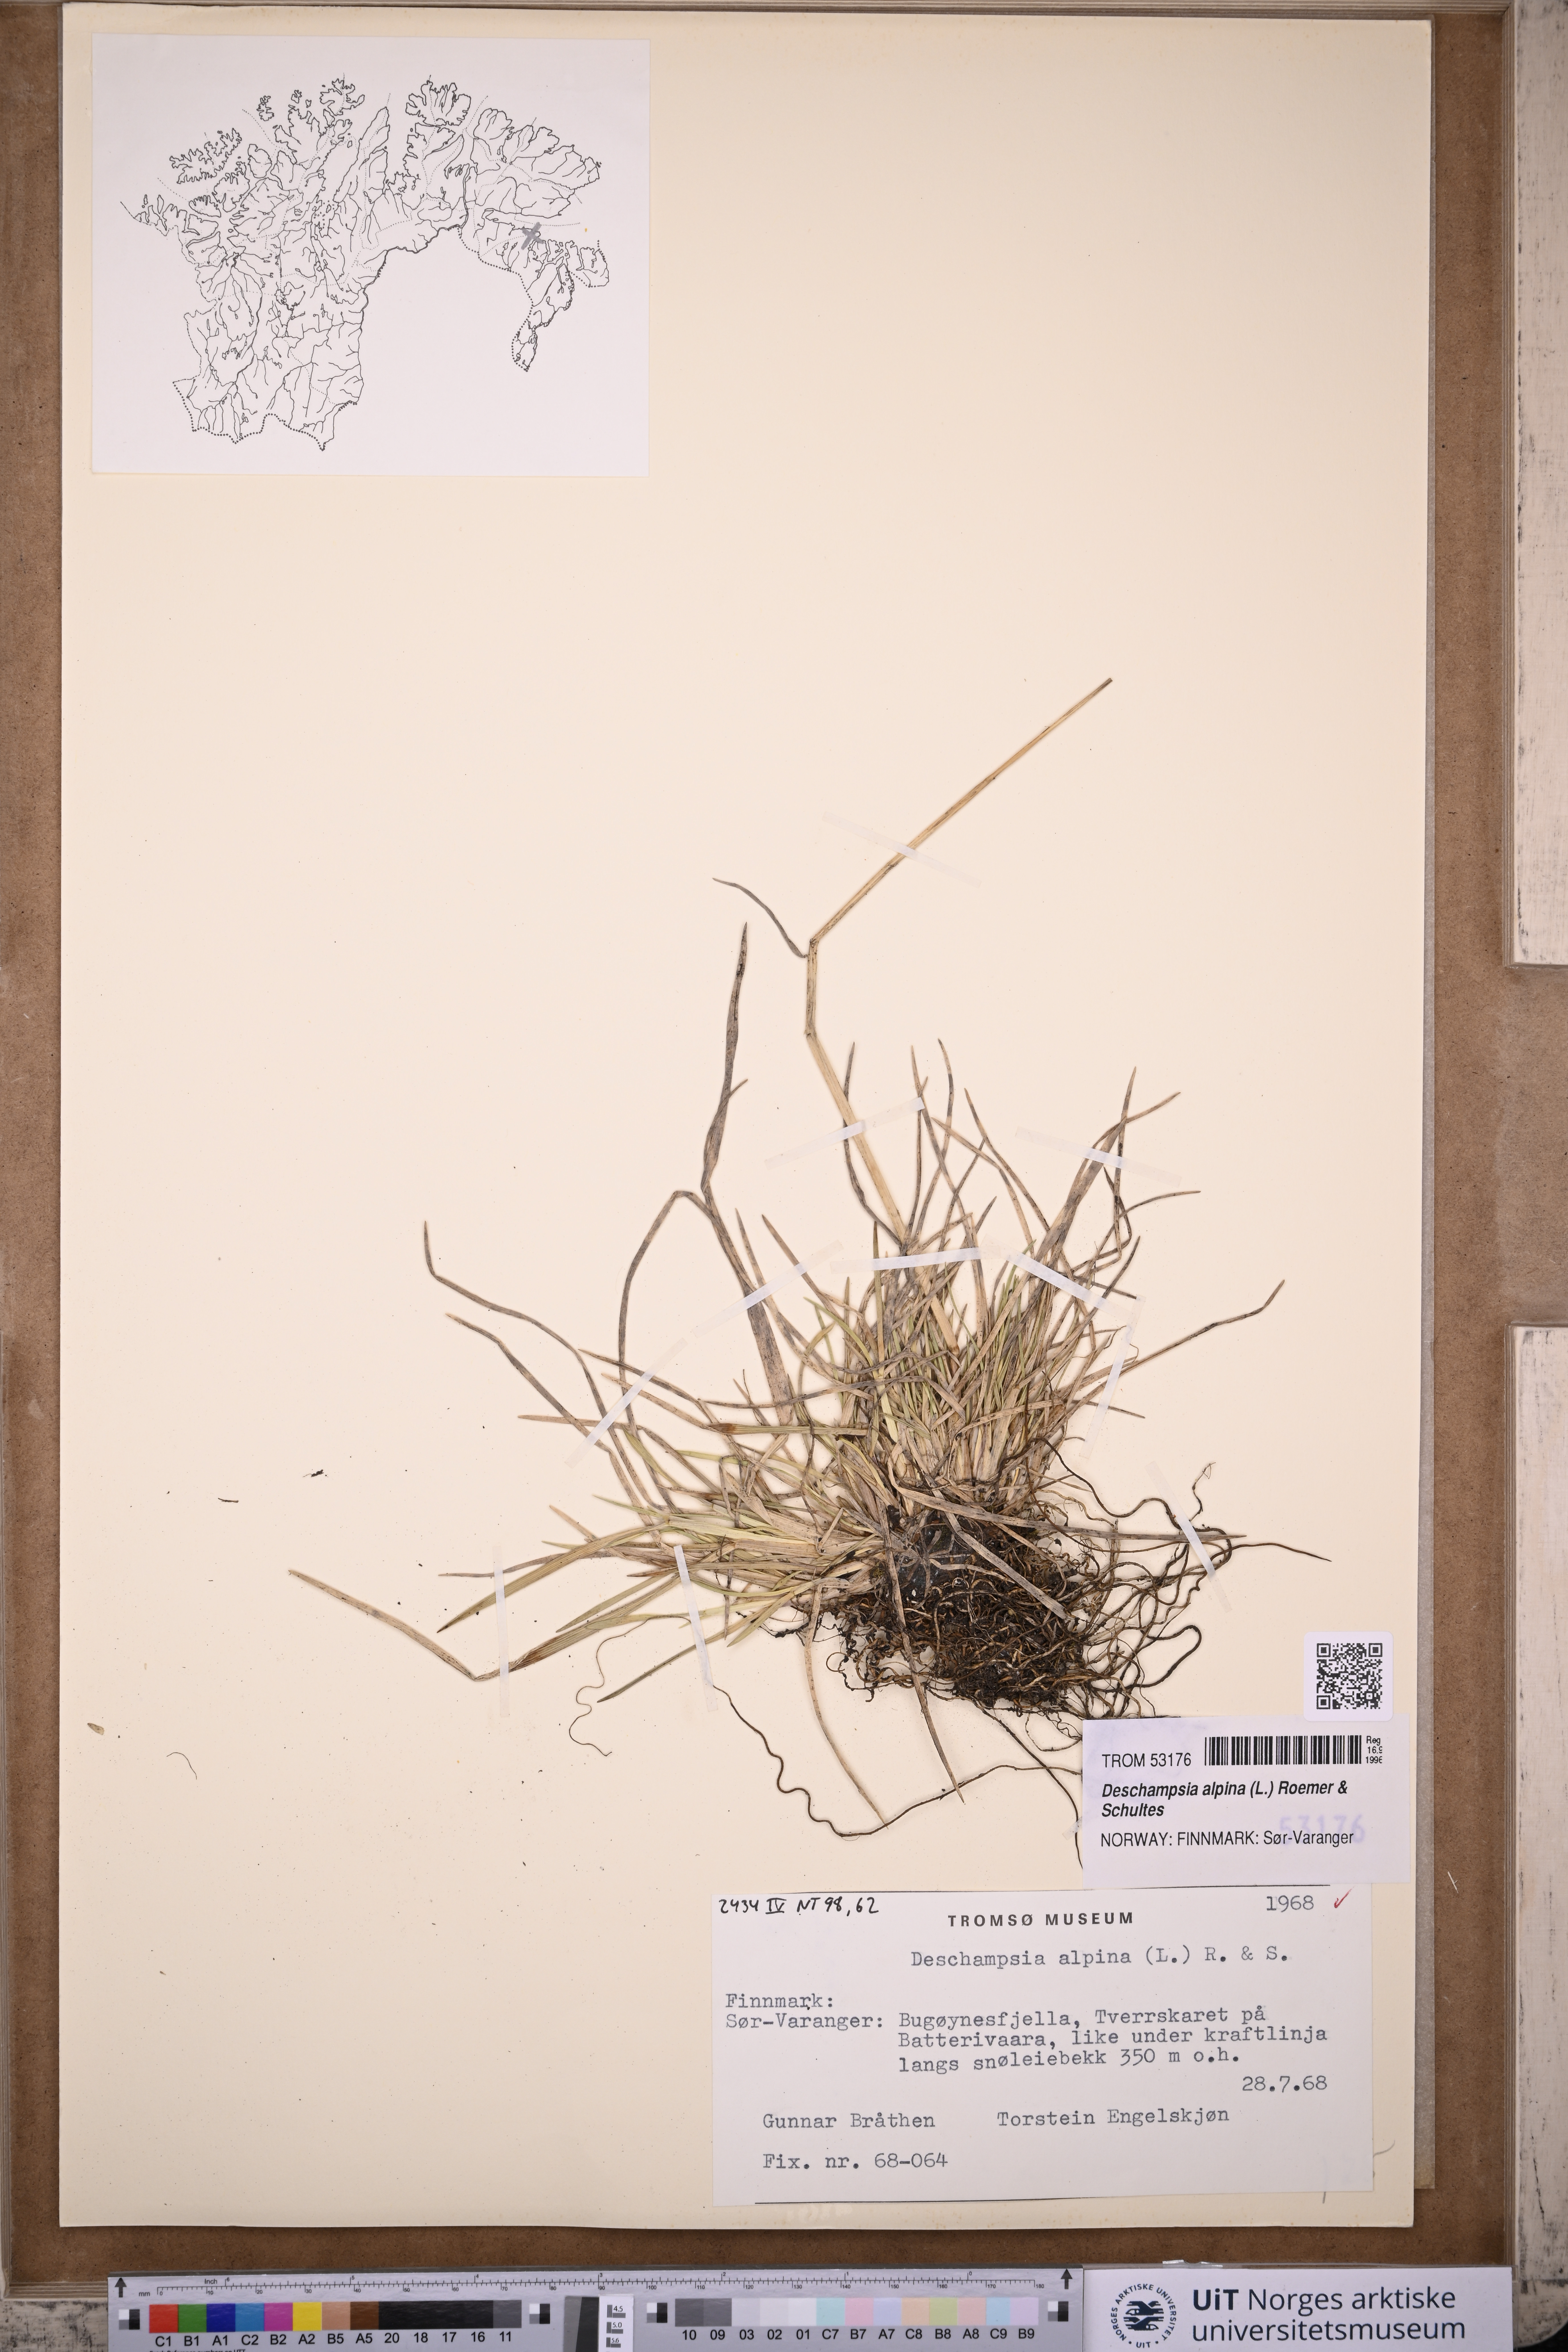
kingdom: Plantae
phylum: Tracheophyta
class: Liliopsida
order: Poales
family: Poaceae
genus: Deschampsia
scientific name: Deschampsia cespitosa
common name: Tufted hair-grass
